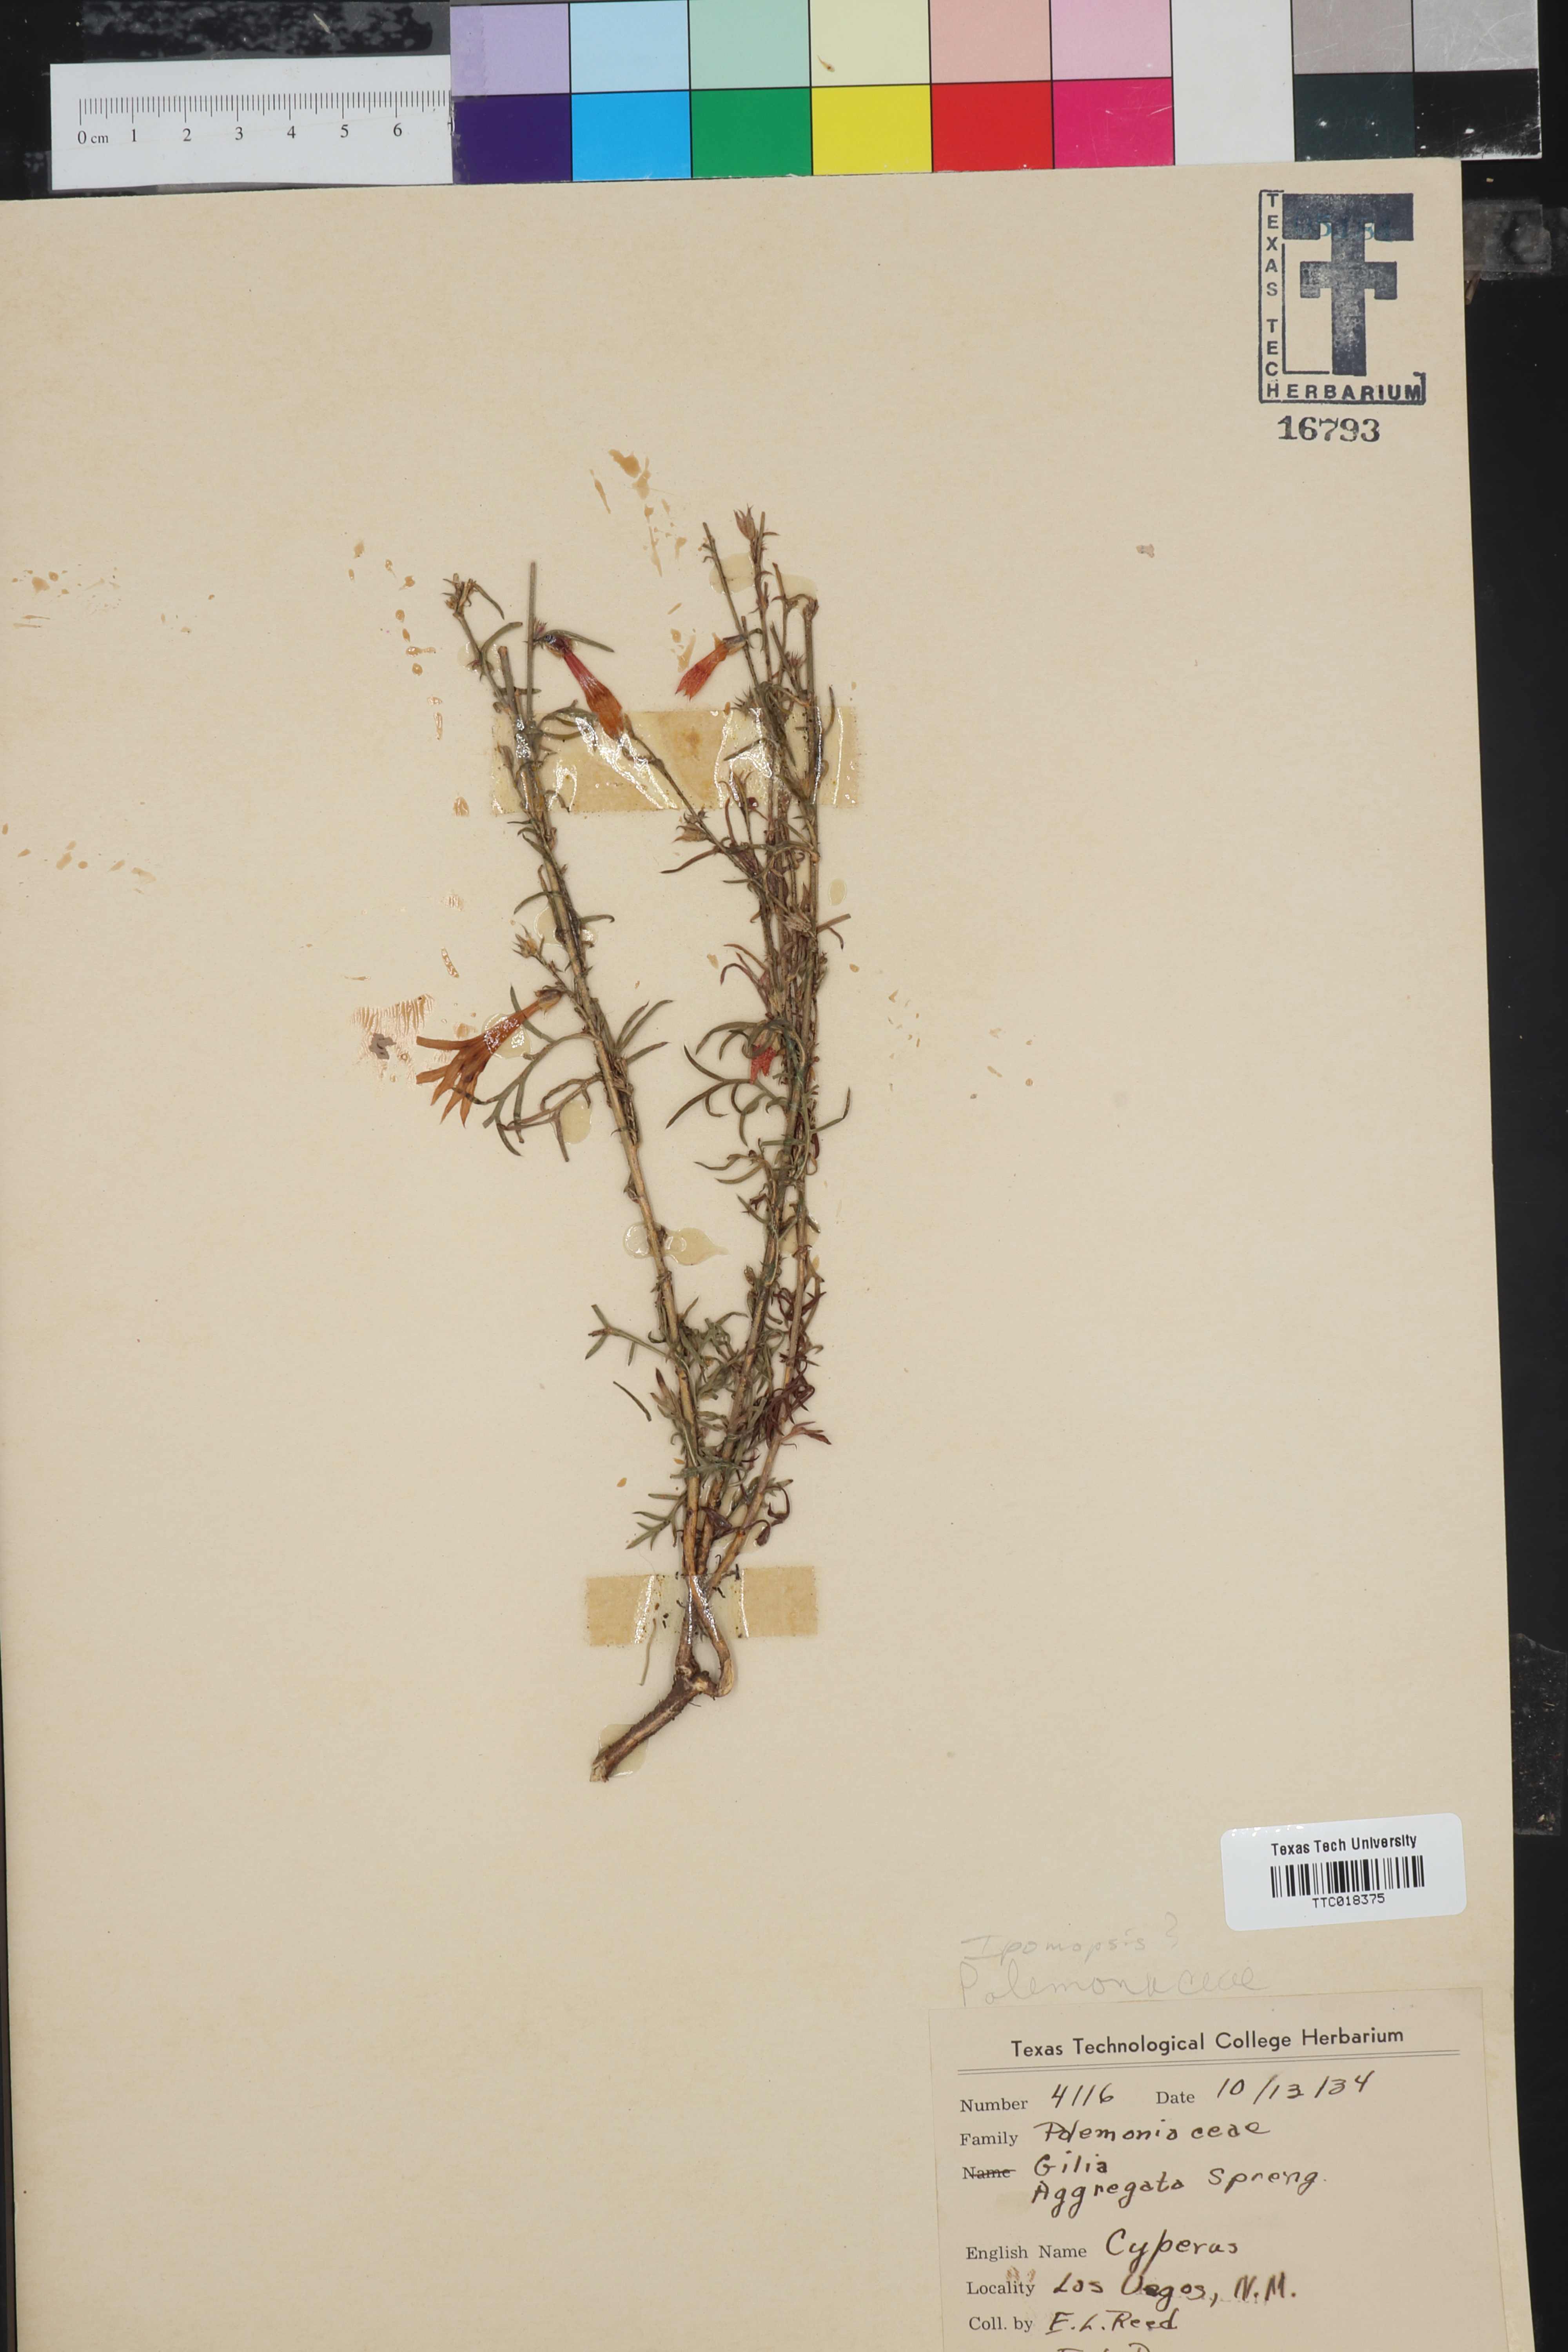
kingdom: Plantae
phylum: Tracheophyta
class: Magnoliopsida
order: Ericales
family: Polemoniaceae
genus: Ipomopsis
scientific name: Ipomopsis
